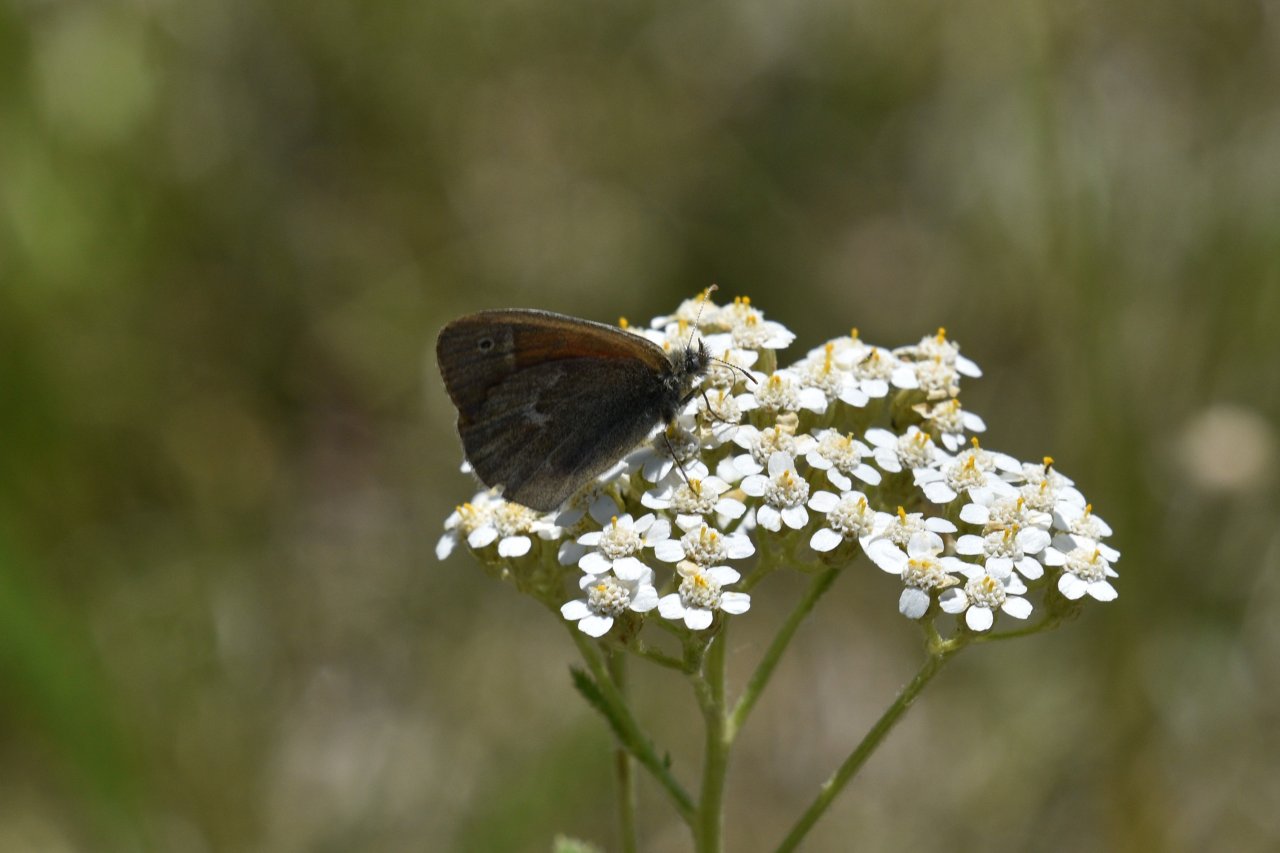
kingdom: Animalia
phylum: Arthropoda
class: Insecta
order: Lepidoptera
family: Nymphalidae
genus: Coenonympha
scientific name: Coenonympha tullia
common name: Large Heath
